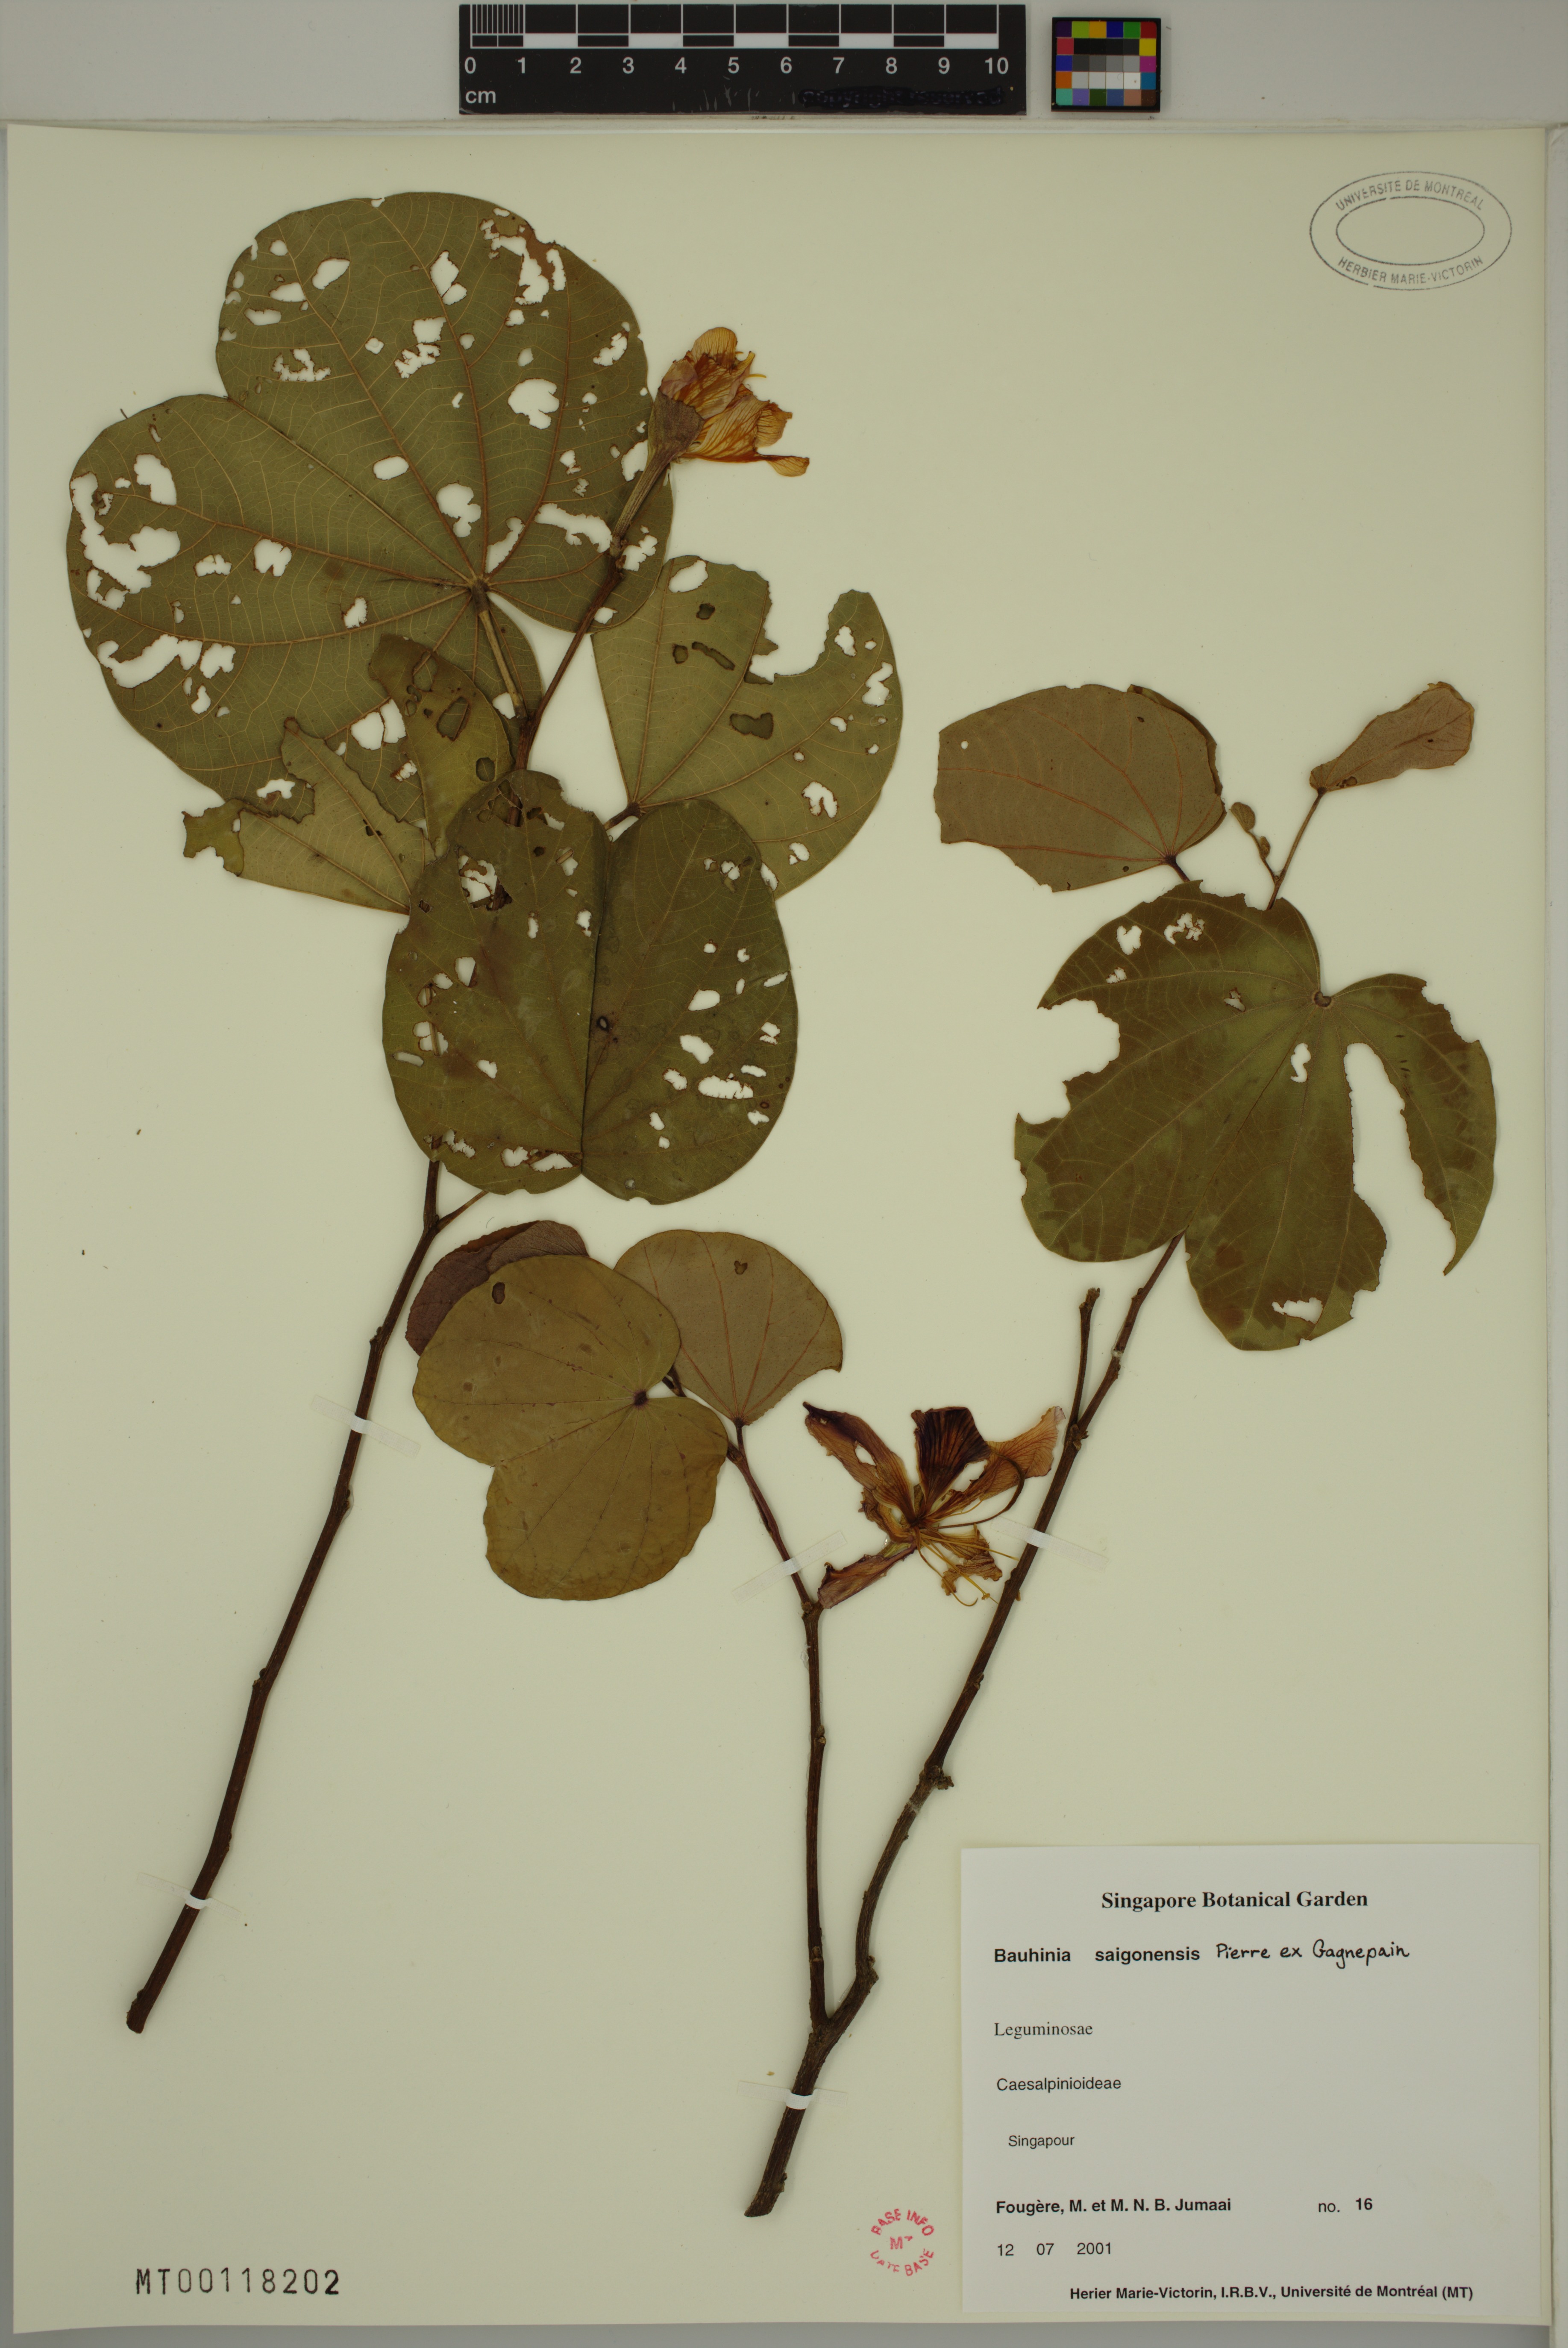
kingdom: Plantae
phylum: Tracheophyta
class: Magnoliopsida
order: Fabales
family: Fabaceae
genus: Phanera
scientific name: Phanera saigonensis
